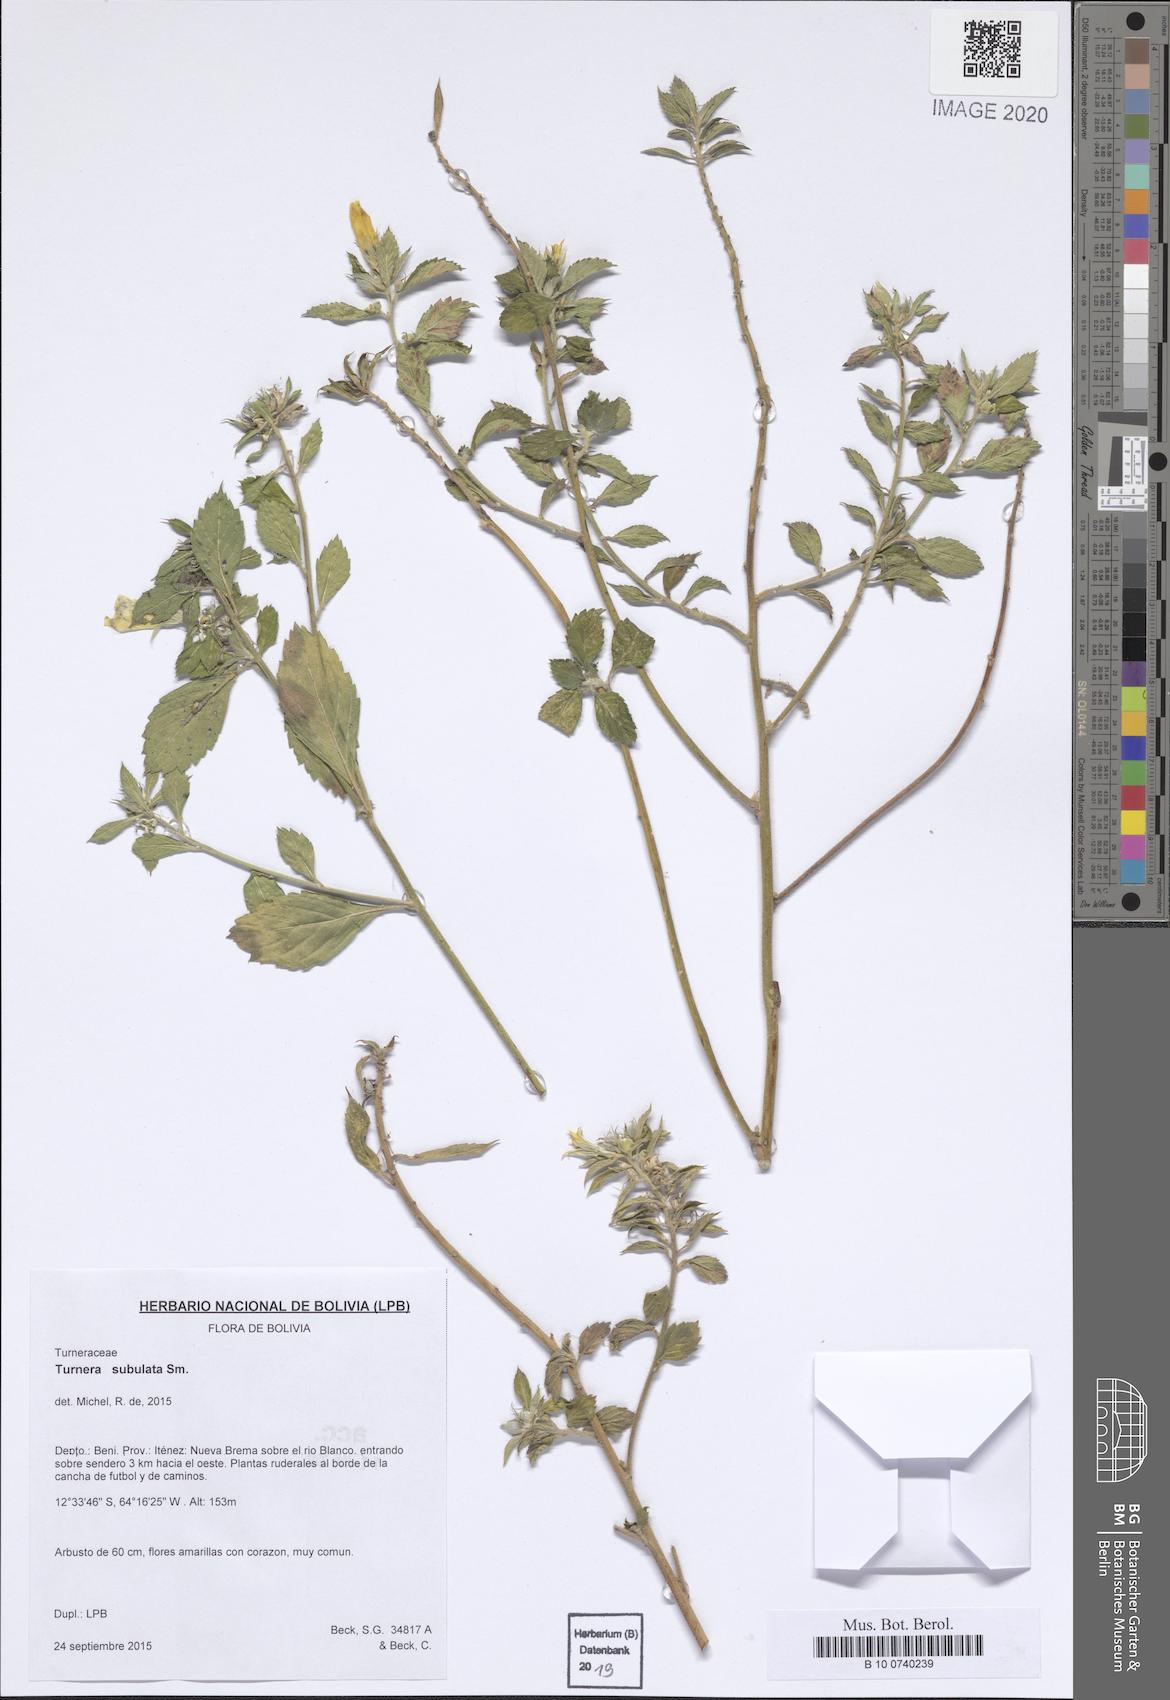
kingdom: Plantae
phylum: Tracheophyta
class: Magnoliopsida
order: Malpighiales
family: Turneraceae
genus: Turnera
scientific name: Turnera subulata
